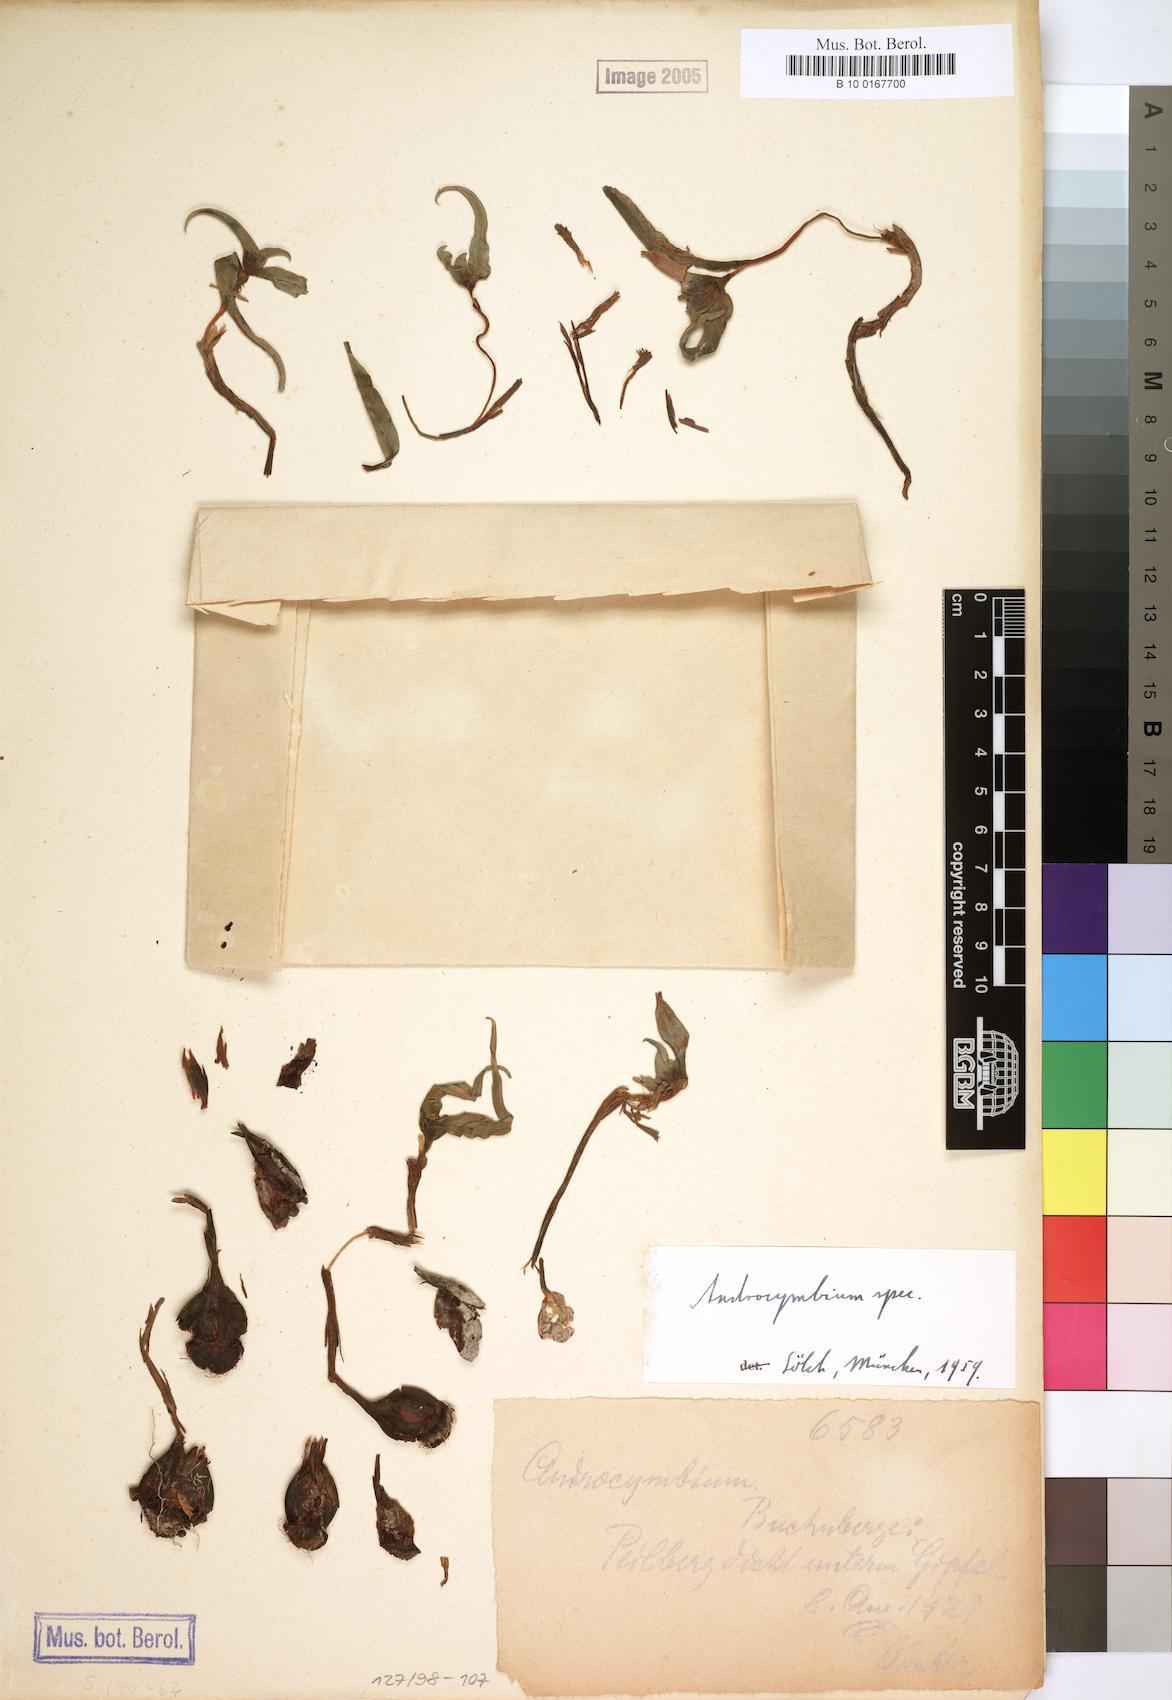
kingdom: Plantae
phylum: Tracheophyta
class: Liliopsida
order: Liliales
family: Colchicaceae
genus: Colchicum
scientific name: Colchicum
